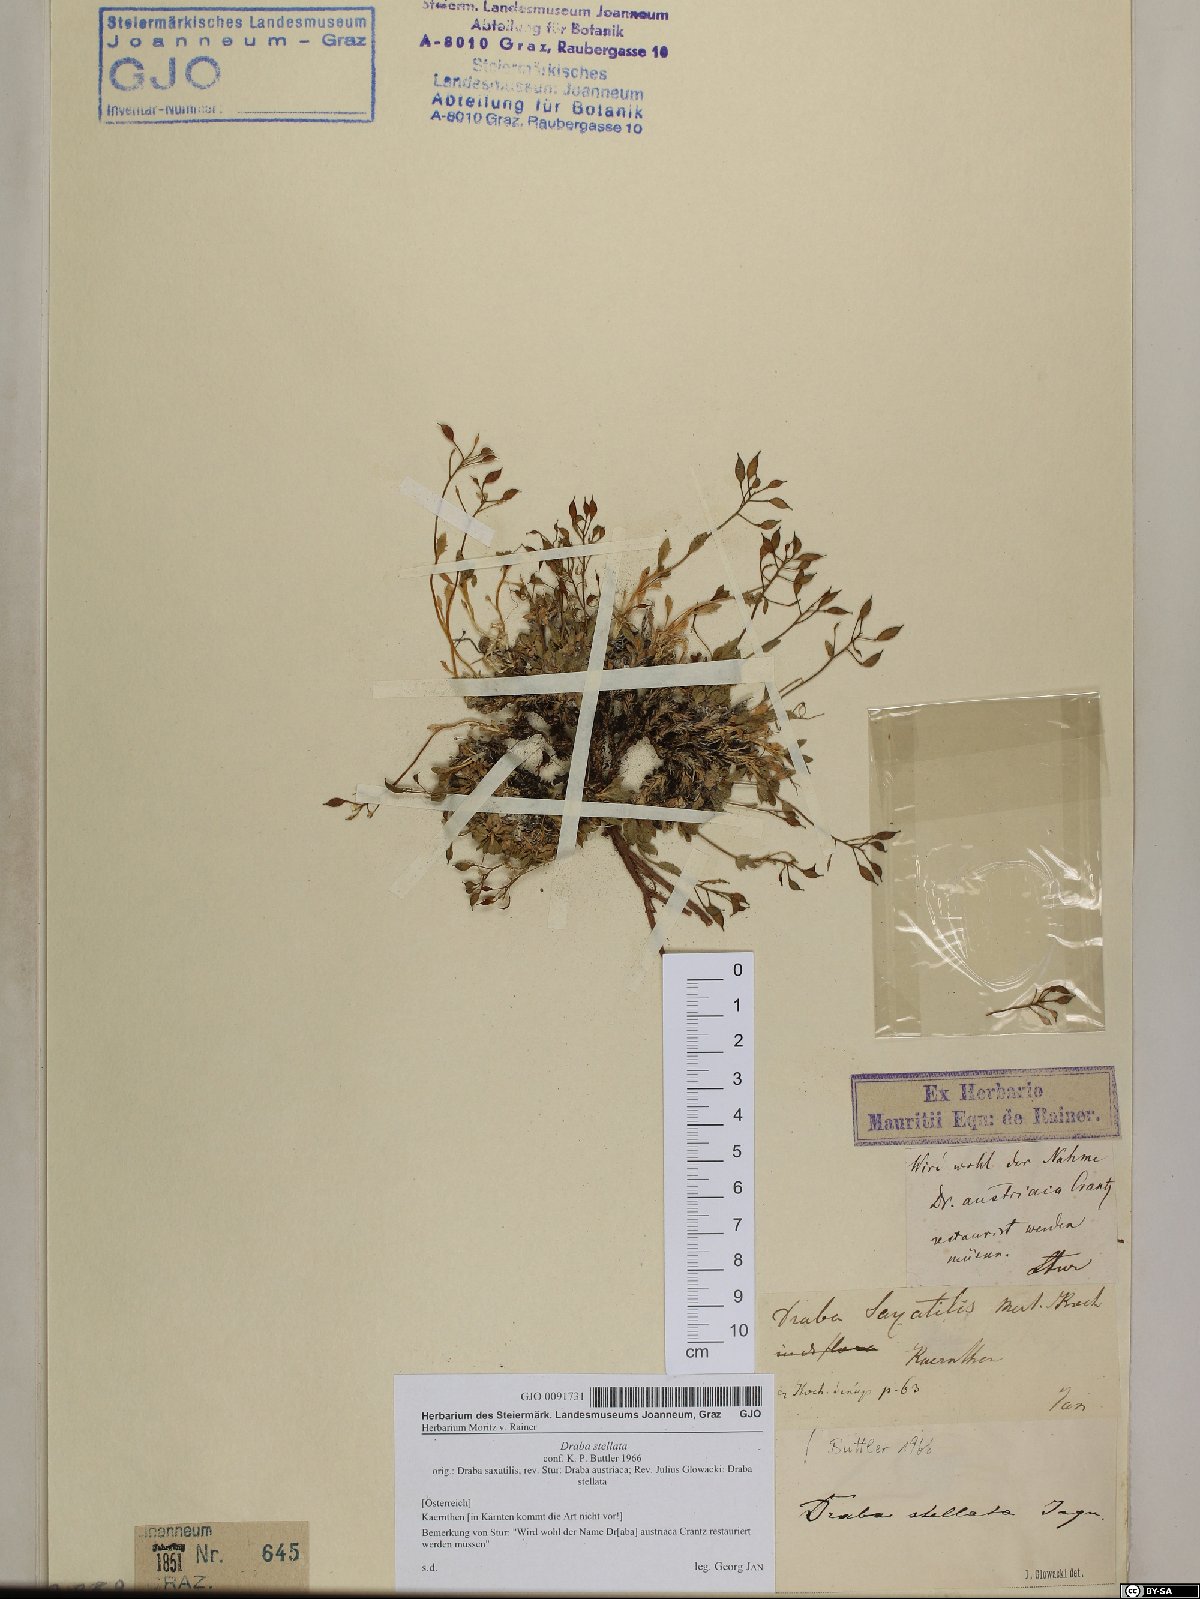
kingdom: Plantae
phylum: Tracheophyta
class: Magnoliopsida
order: Brassicales
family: Brassicaceae
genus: Draba
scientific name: Draba stellata
